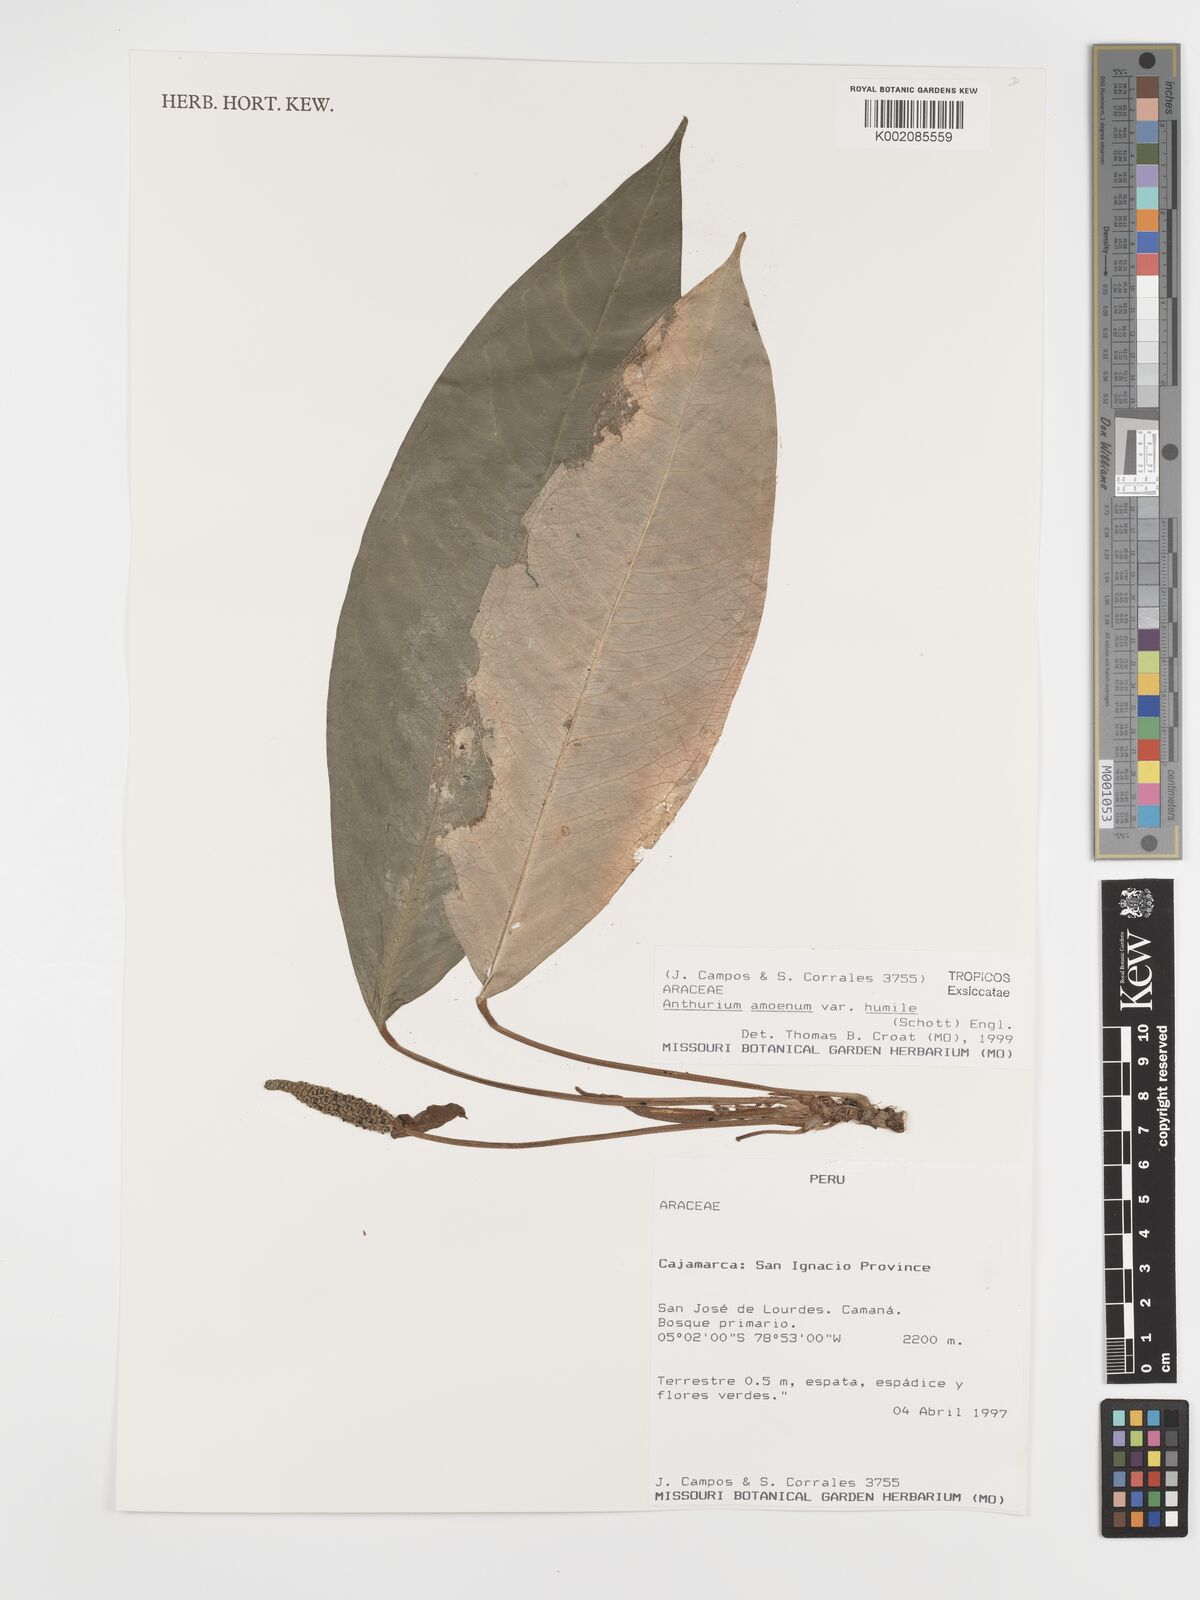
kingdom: Plantae
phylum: Tracheophyta
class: Liliopsida
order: Alismatales
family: Araceae
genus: Anthurium
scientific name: Anthurium amoenum
